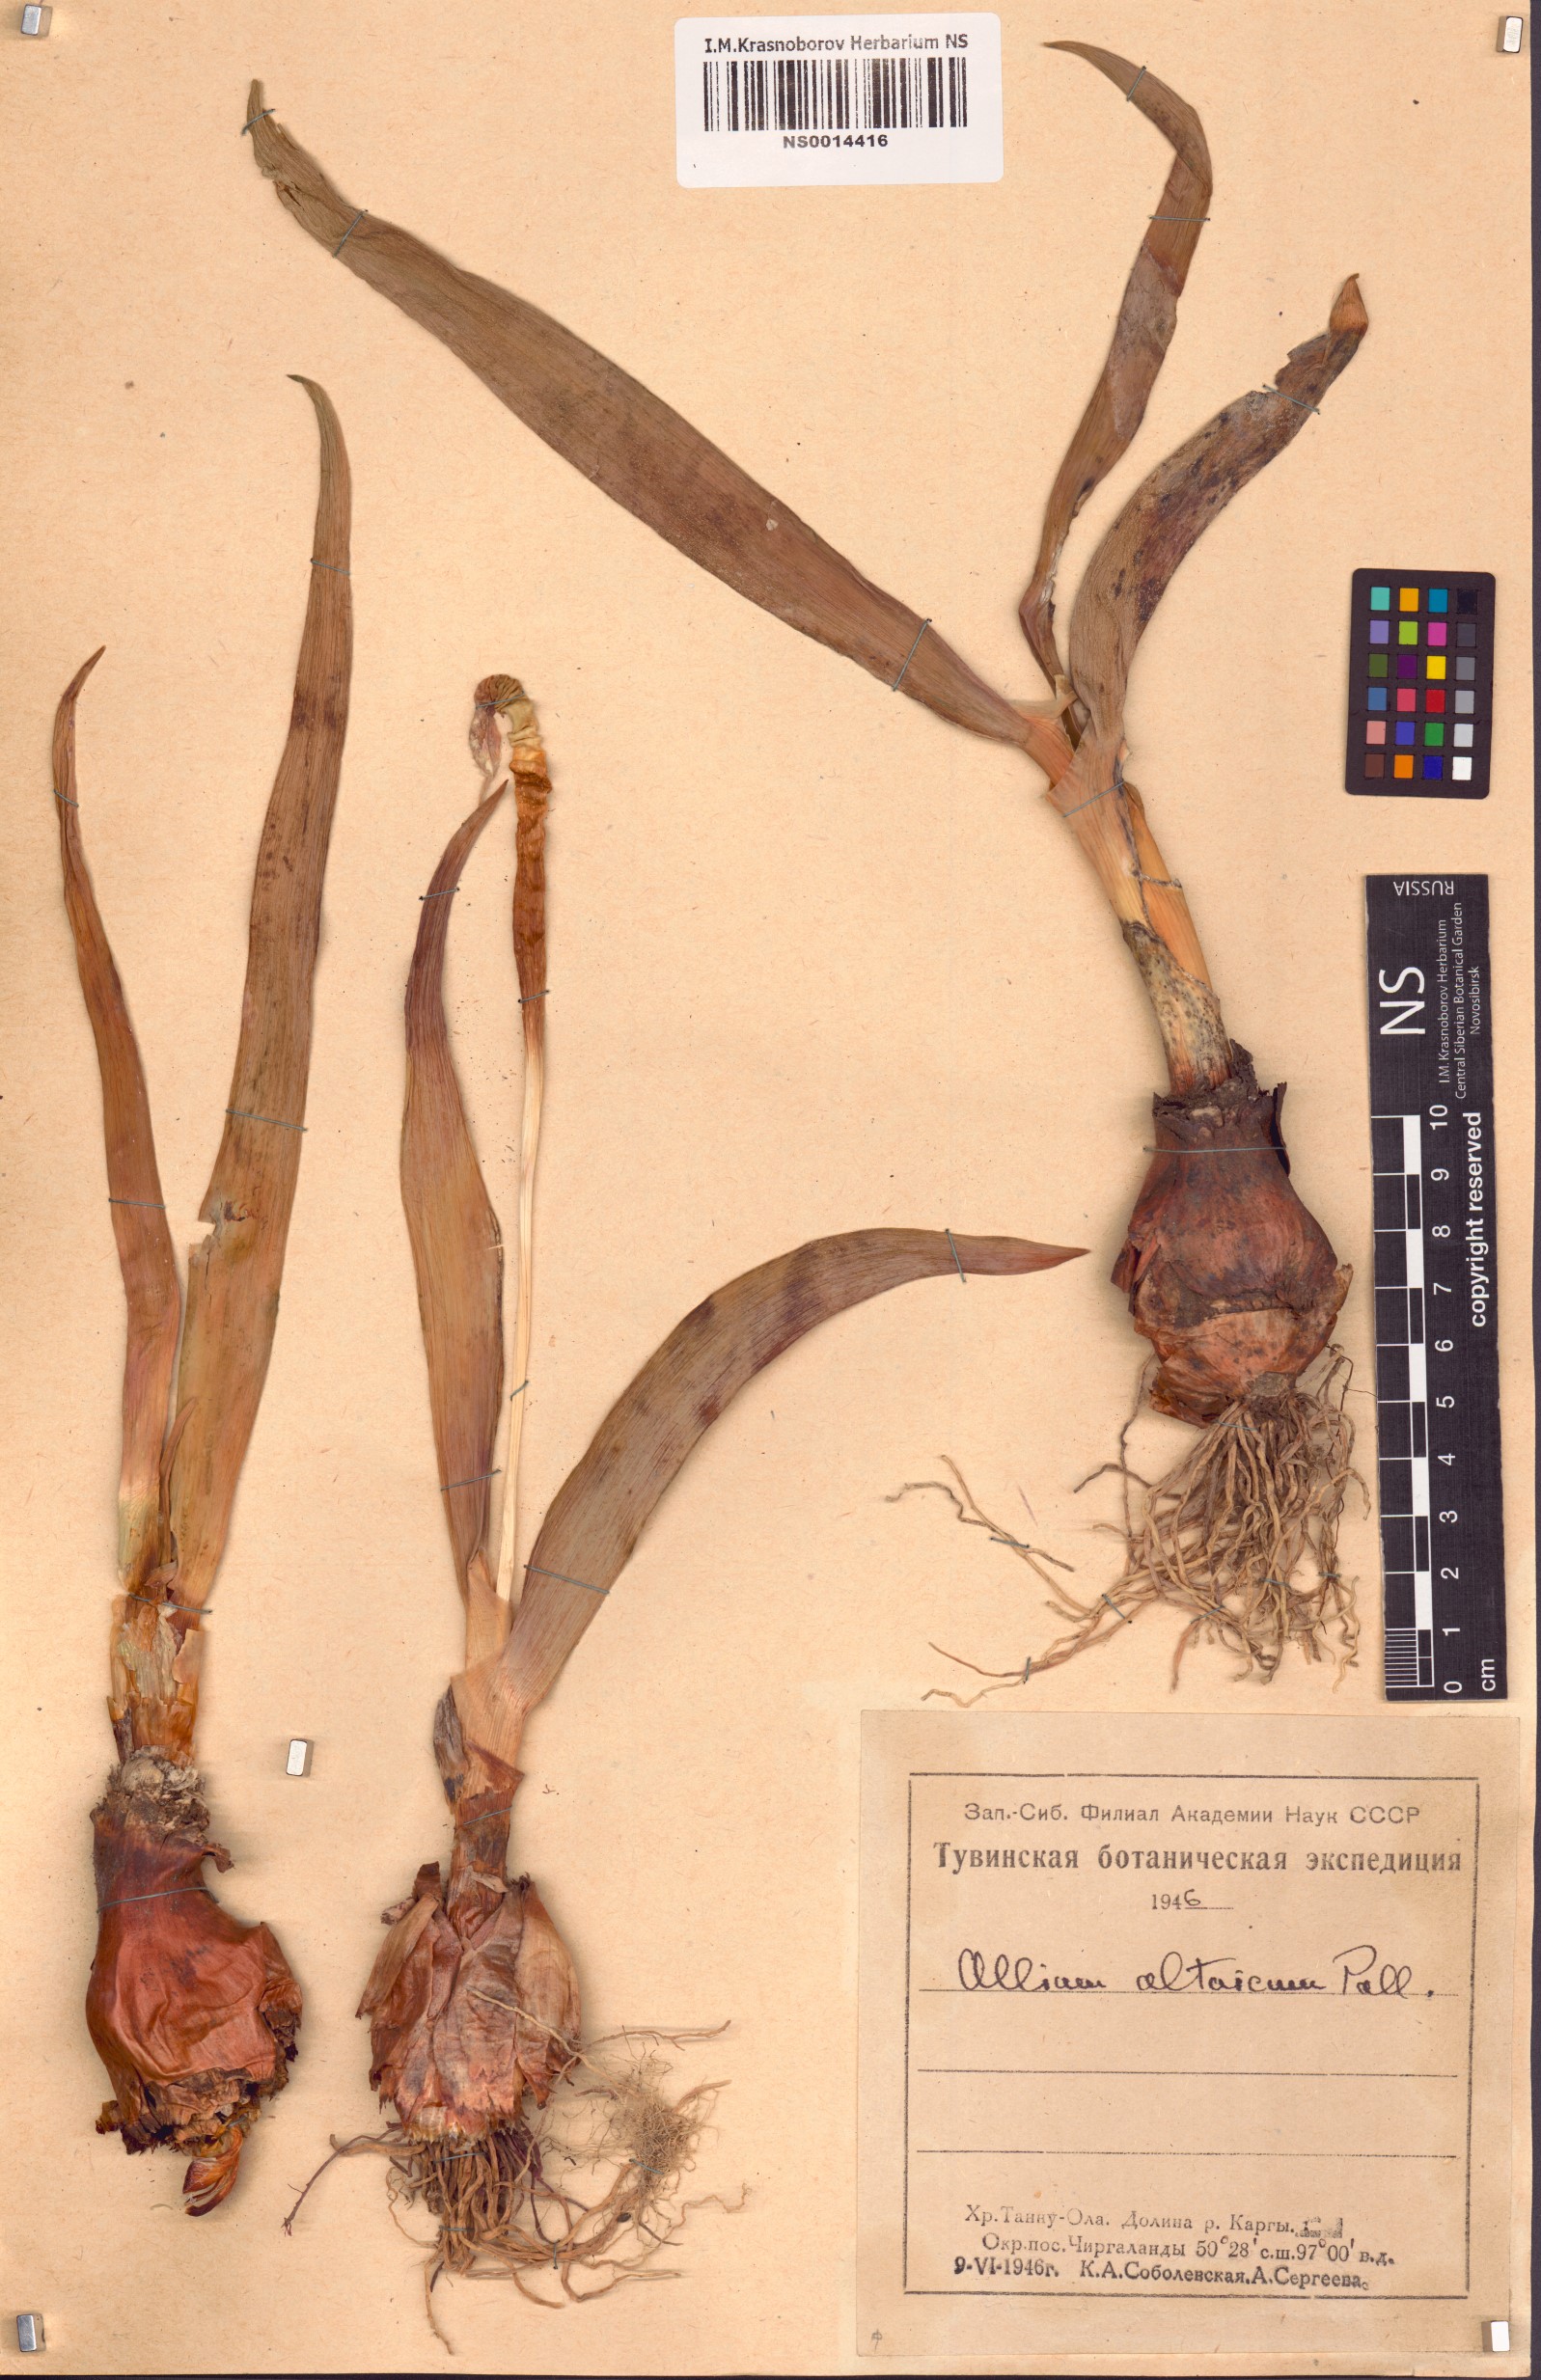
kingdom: Plantae
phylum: Tracheophyta
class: Liliopsida
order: Asparagales
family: Amaryllidaceae
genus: Allium
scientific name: Allium altaicum
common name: Altai onion
